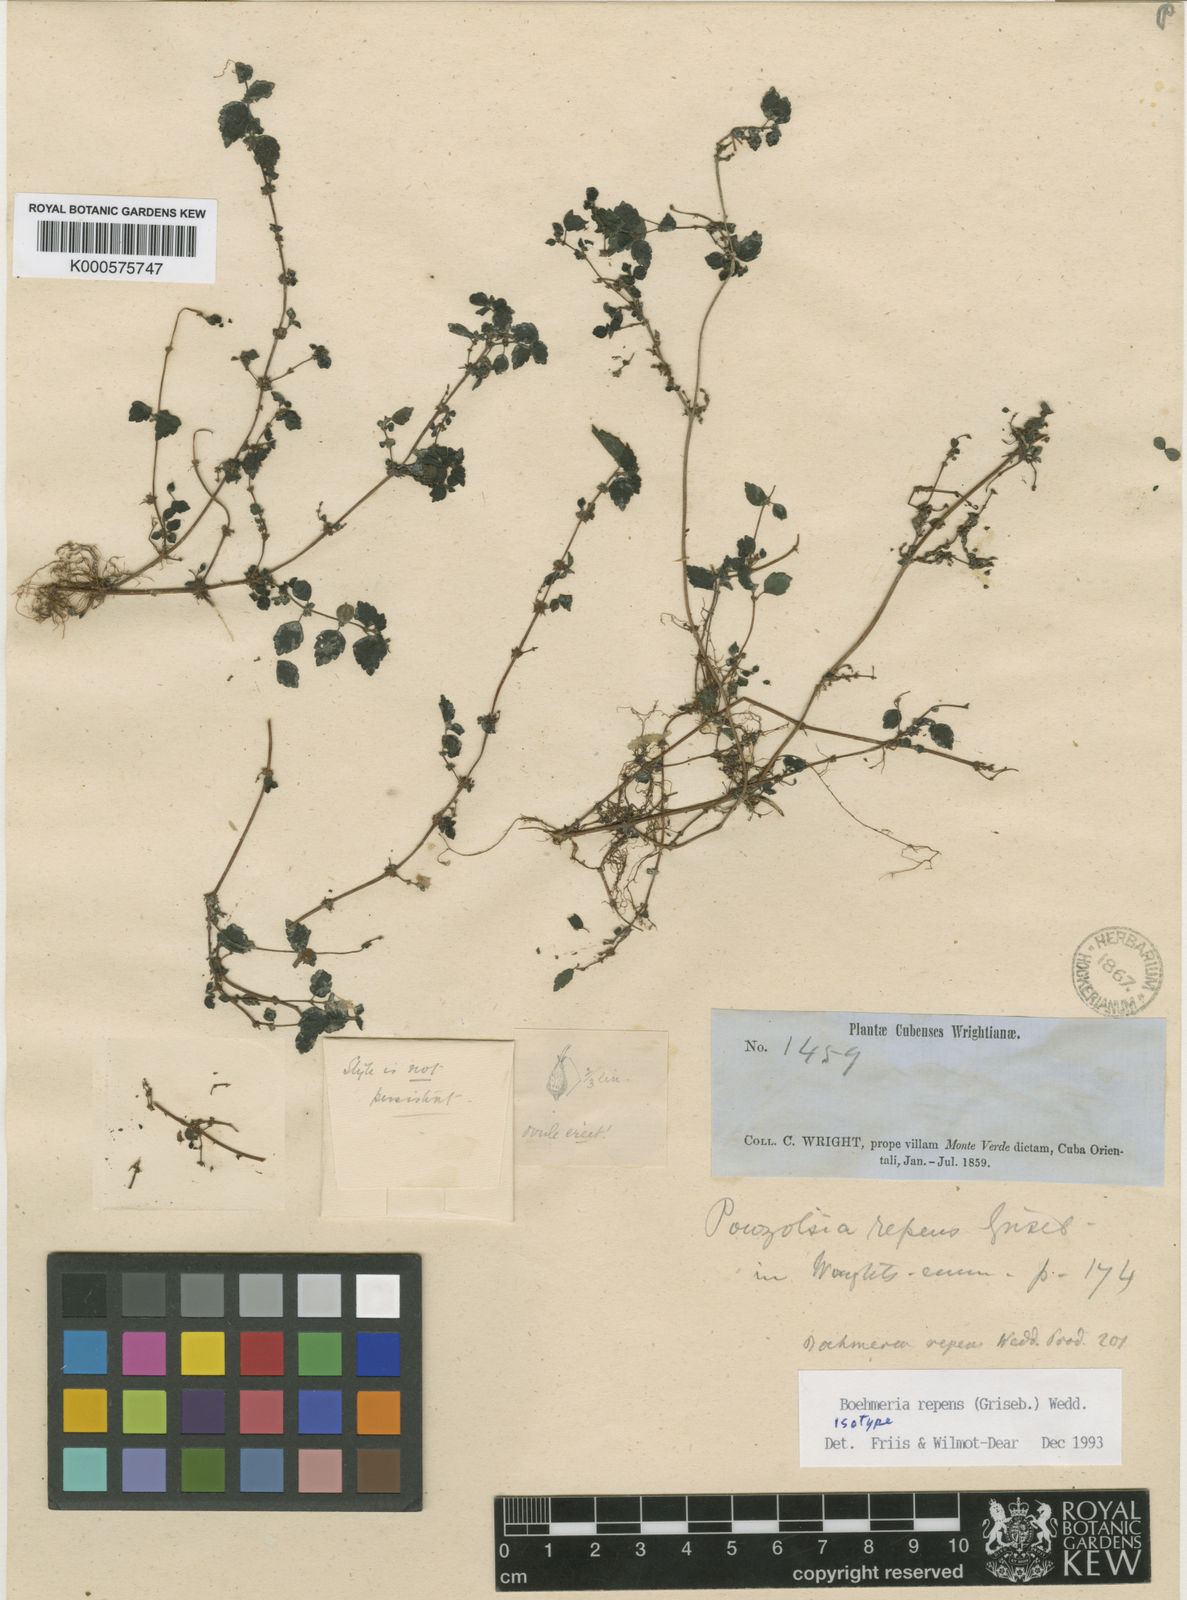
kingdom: Plantae
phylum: Tracheophyta
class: Magnoliopsida
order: Rosales
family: Urticaceae
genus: Boehmeria
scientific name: Boehmeria repens
